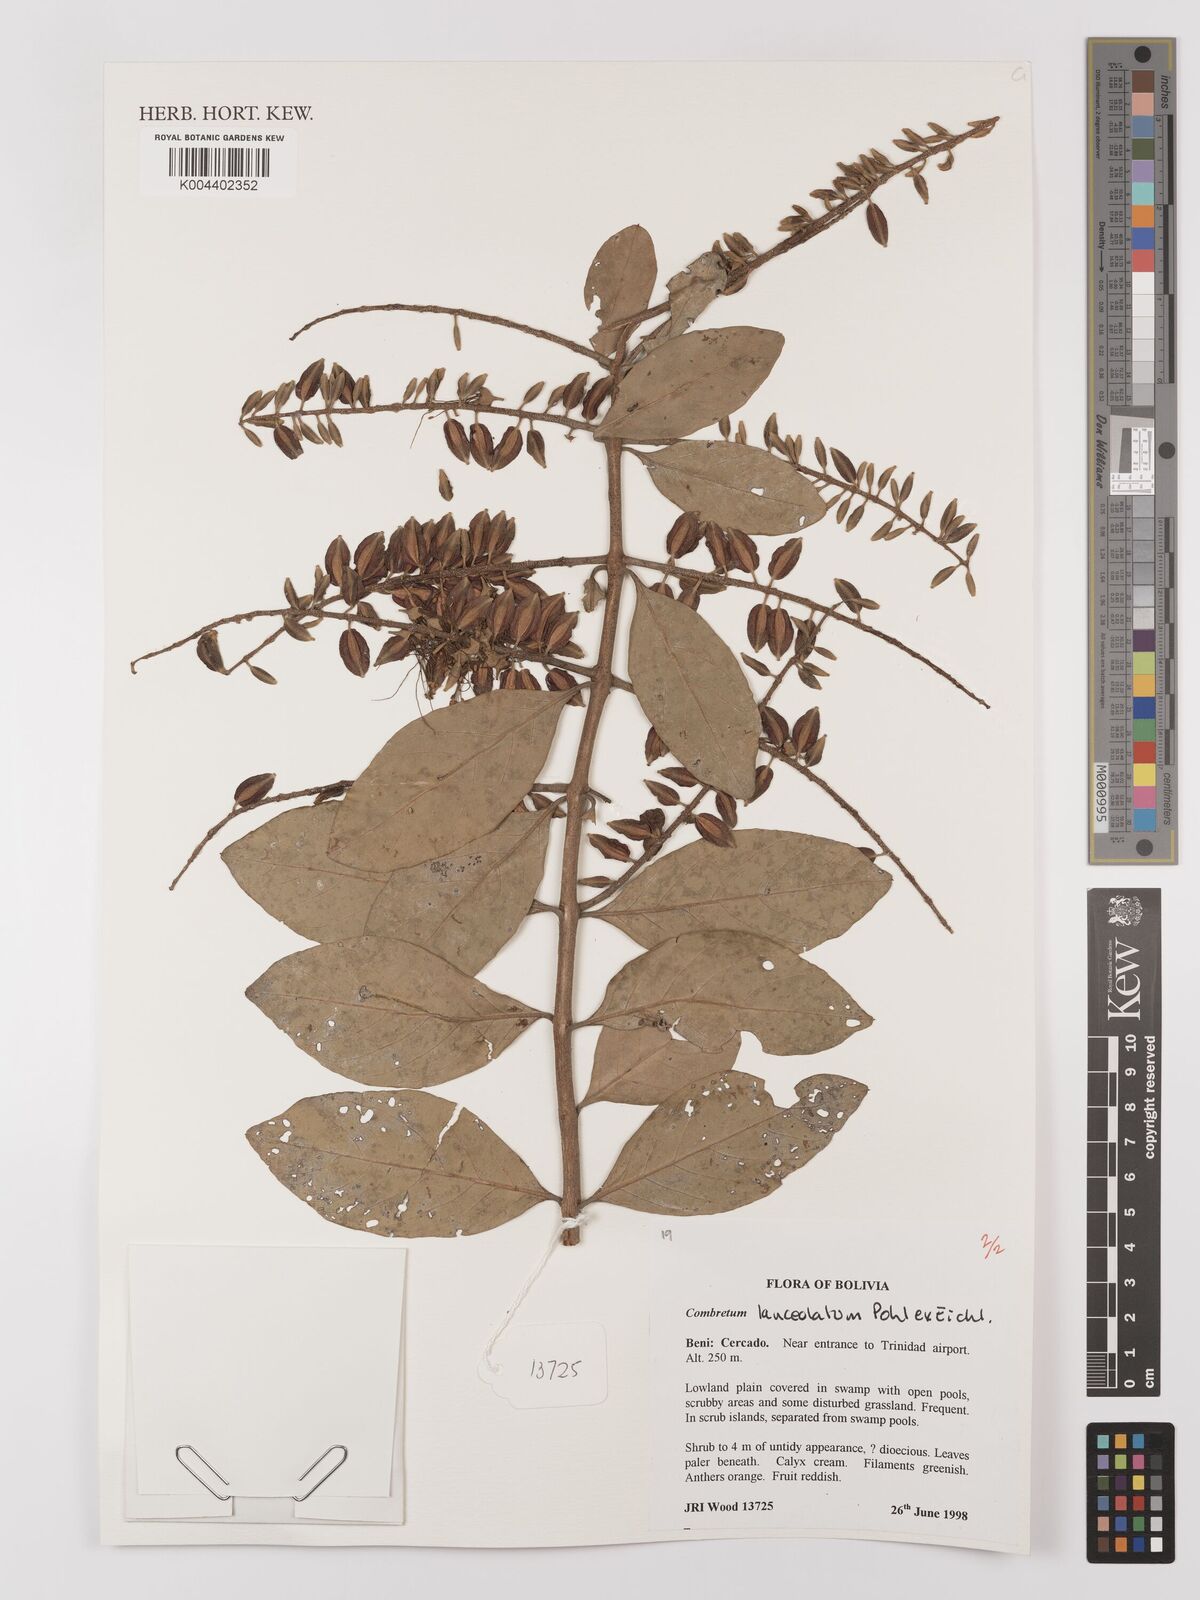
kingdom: Plantae
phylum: Tracheophyta
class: Magnoliopsida
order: Myrtales
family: Combretaceae
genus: Combretum
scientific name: Combretum lanceolatum
